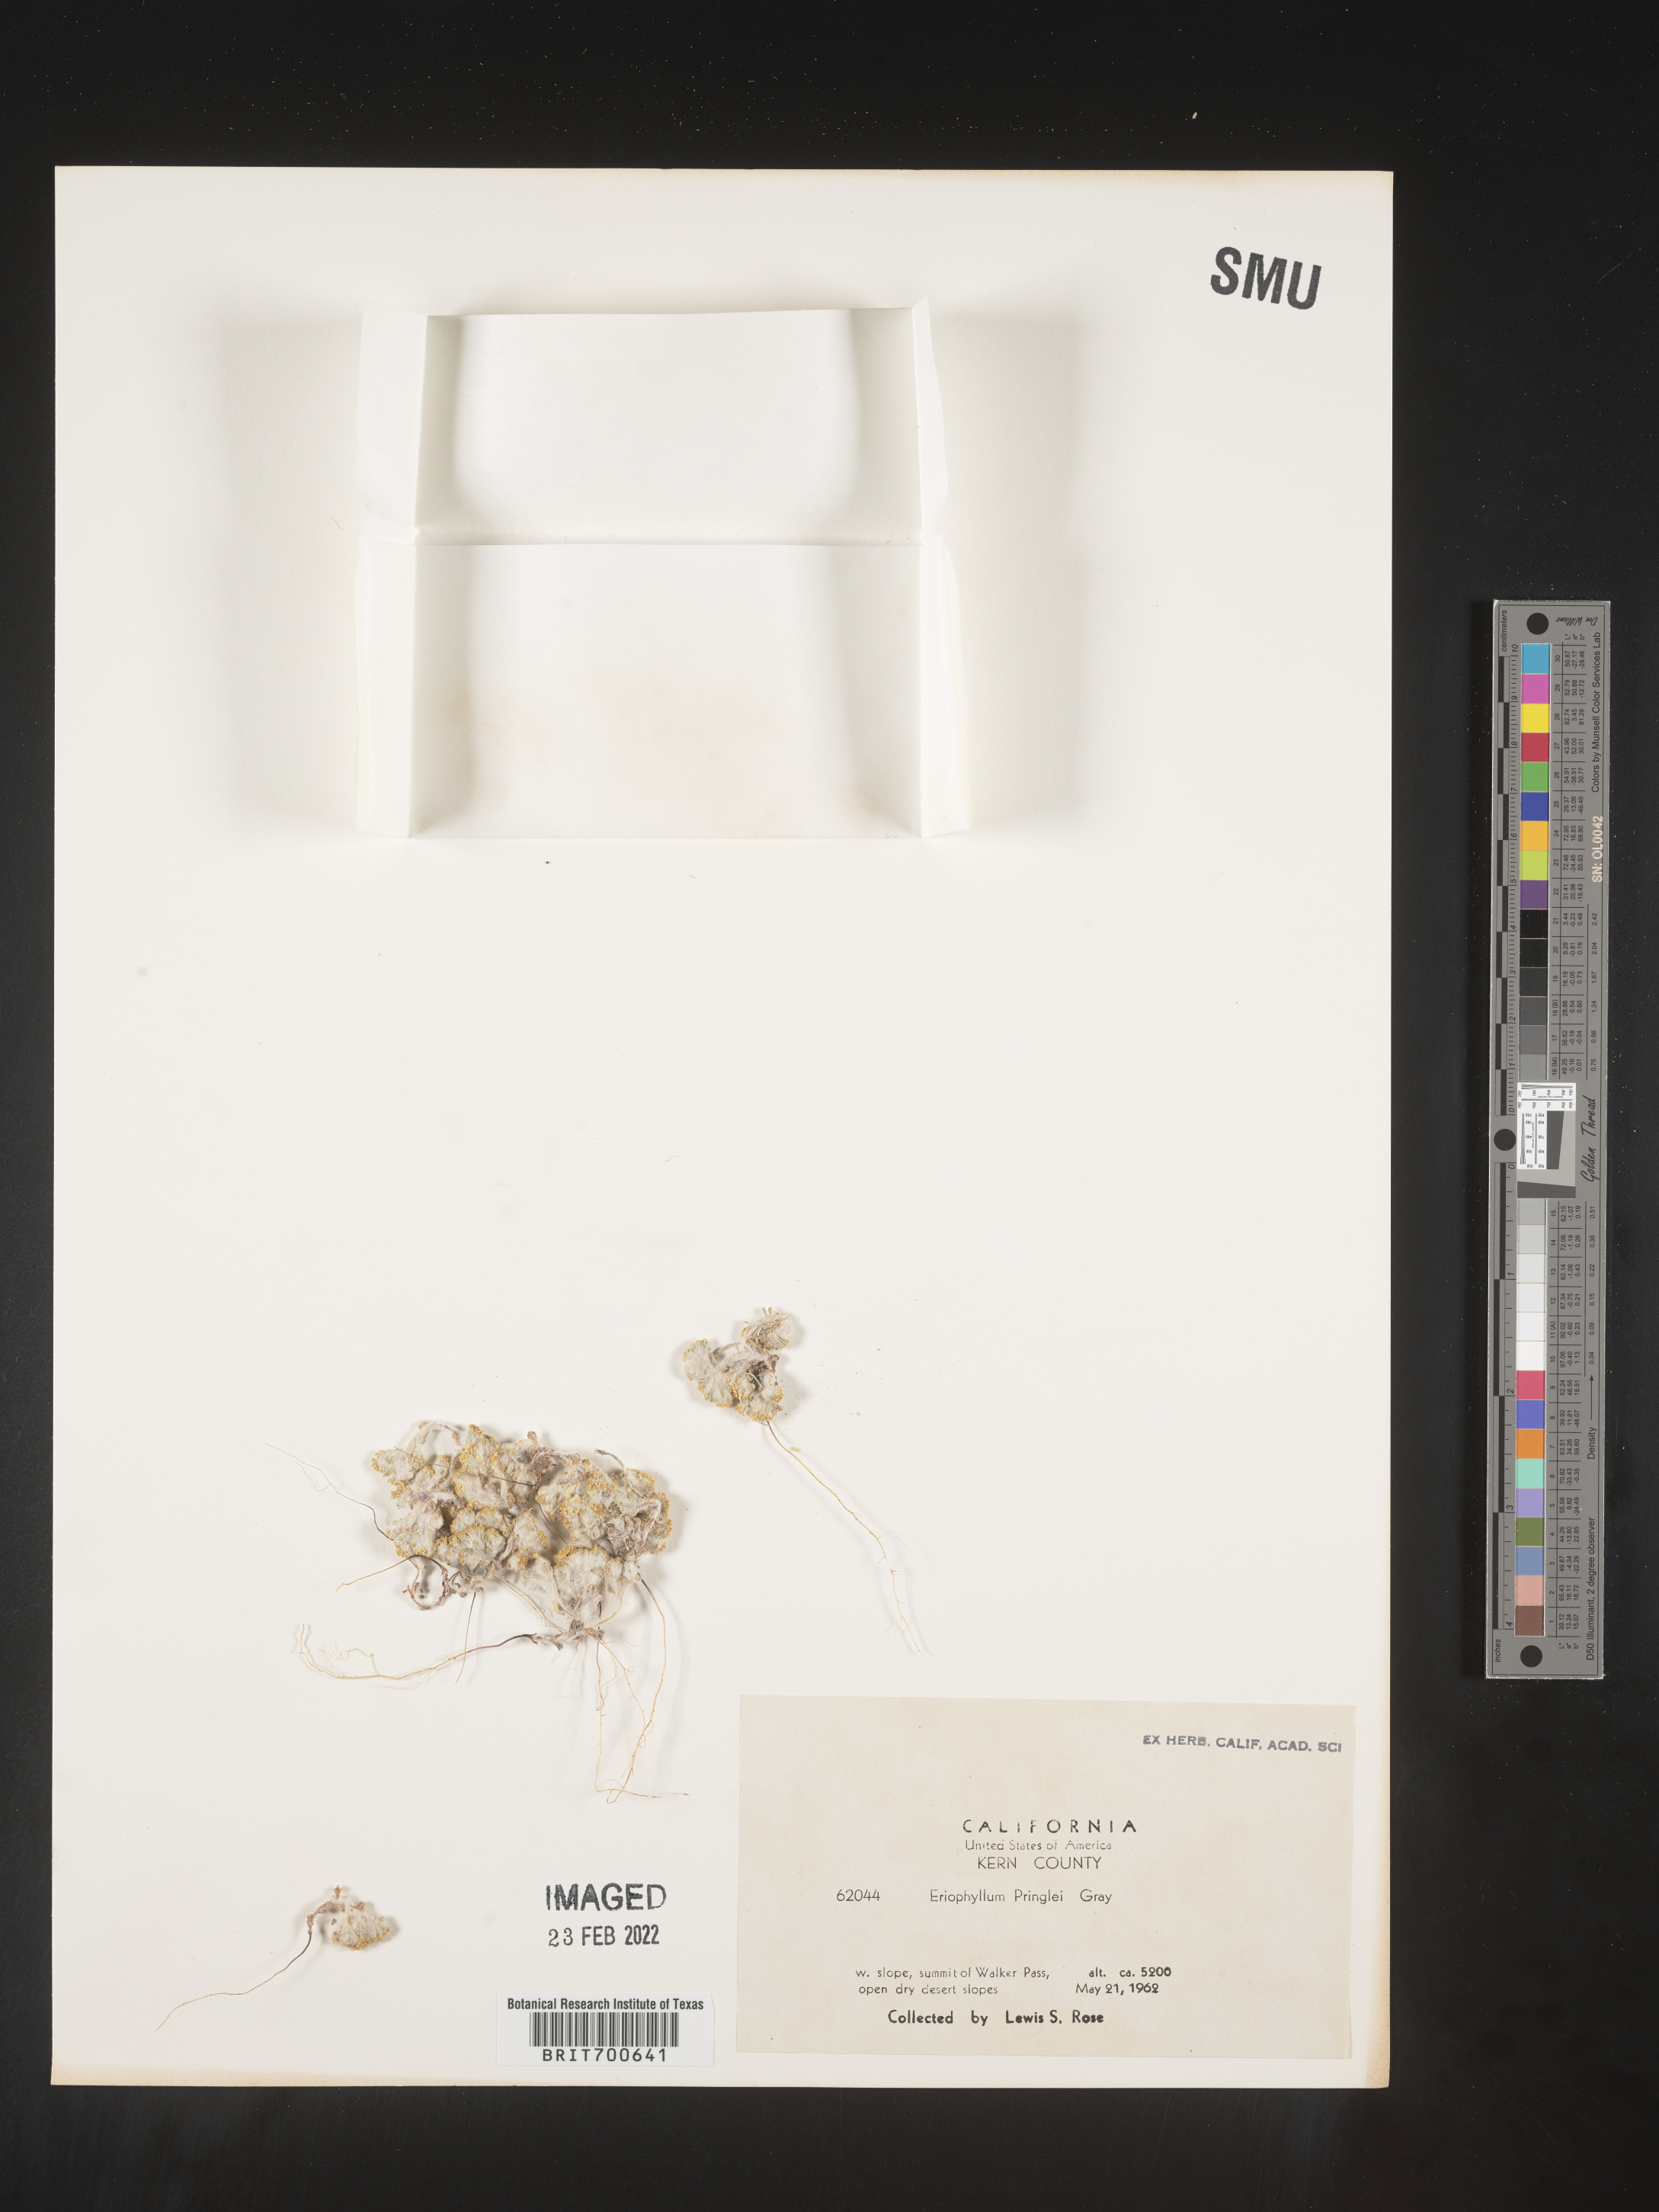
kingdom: Plantae
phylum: Tracheophyta
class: Magnoliopsida
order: Asterales
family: Asteraceae
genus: Eriophyllum
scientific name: Eriophyllum pringlei
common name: Pringle's woolly-sunflower
